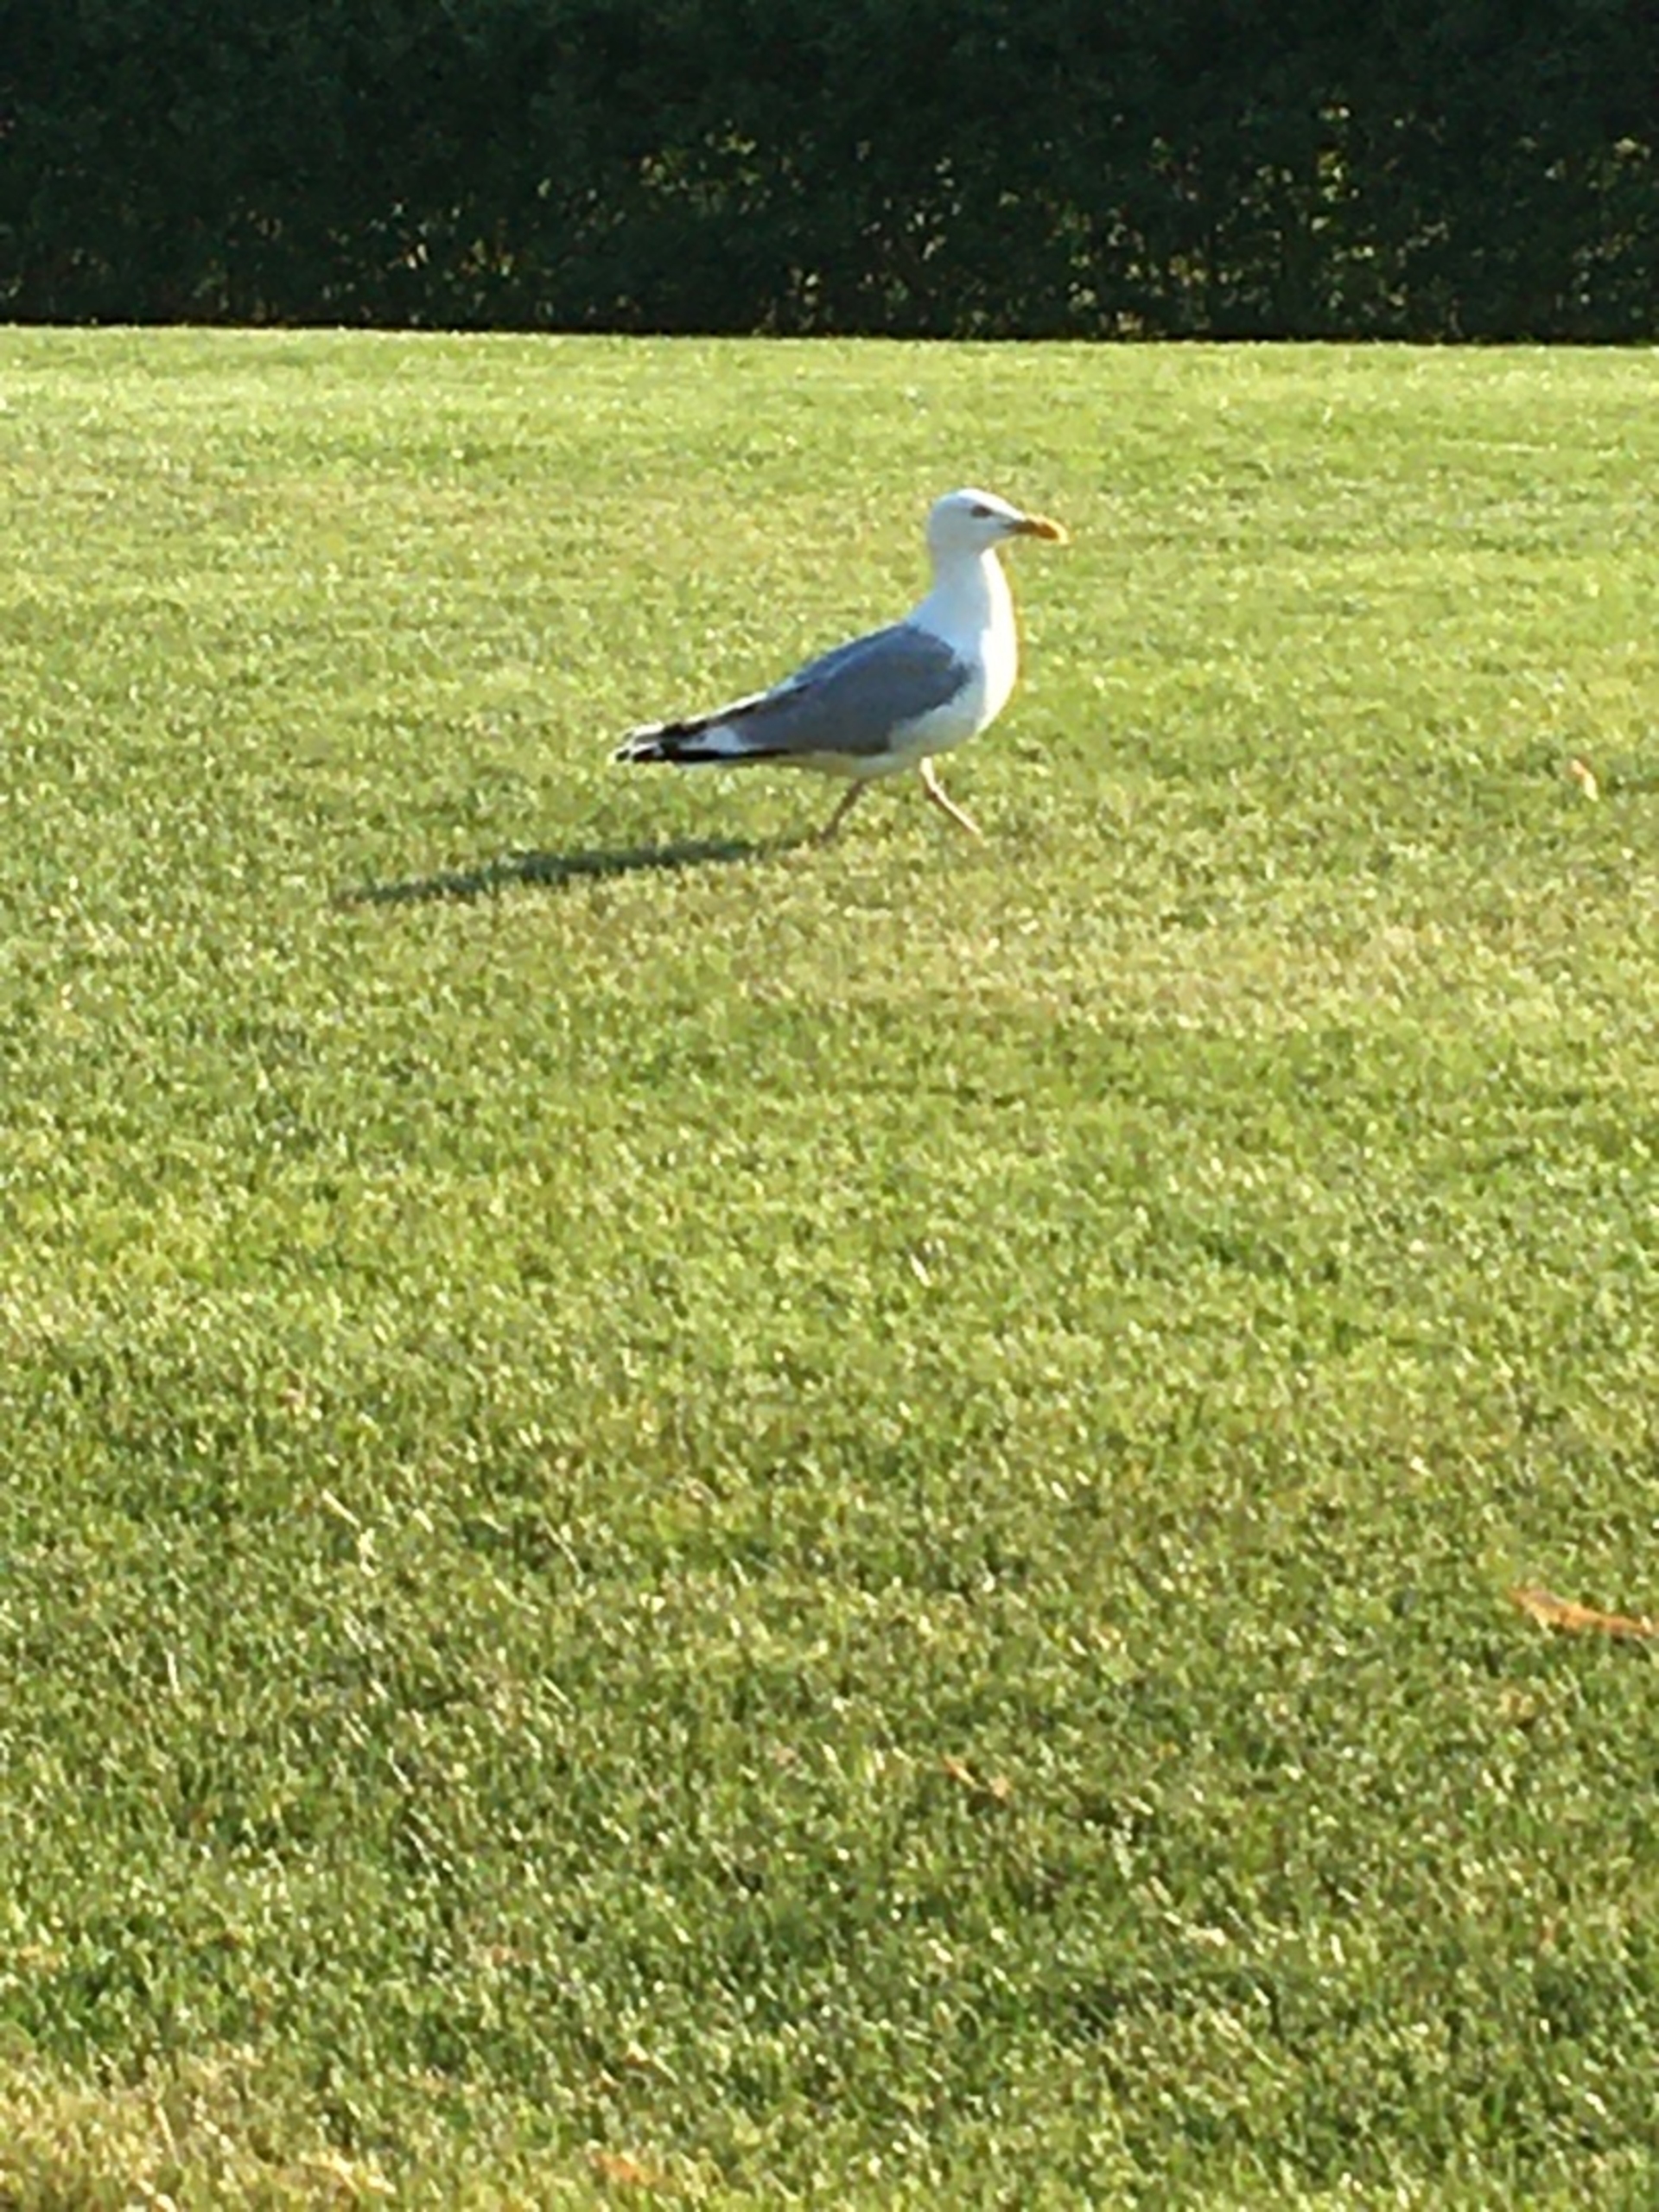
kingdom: Animalia
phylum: Chordata
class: Aves
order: Charadriiformes
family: Laridae
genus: Larus
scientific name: Larus argentatus
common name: Sølvmåge
